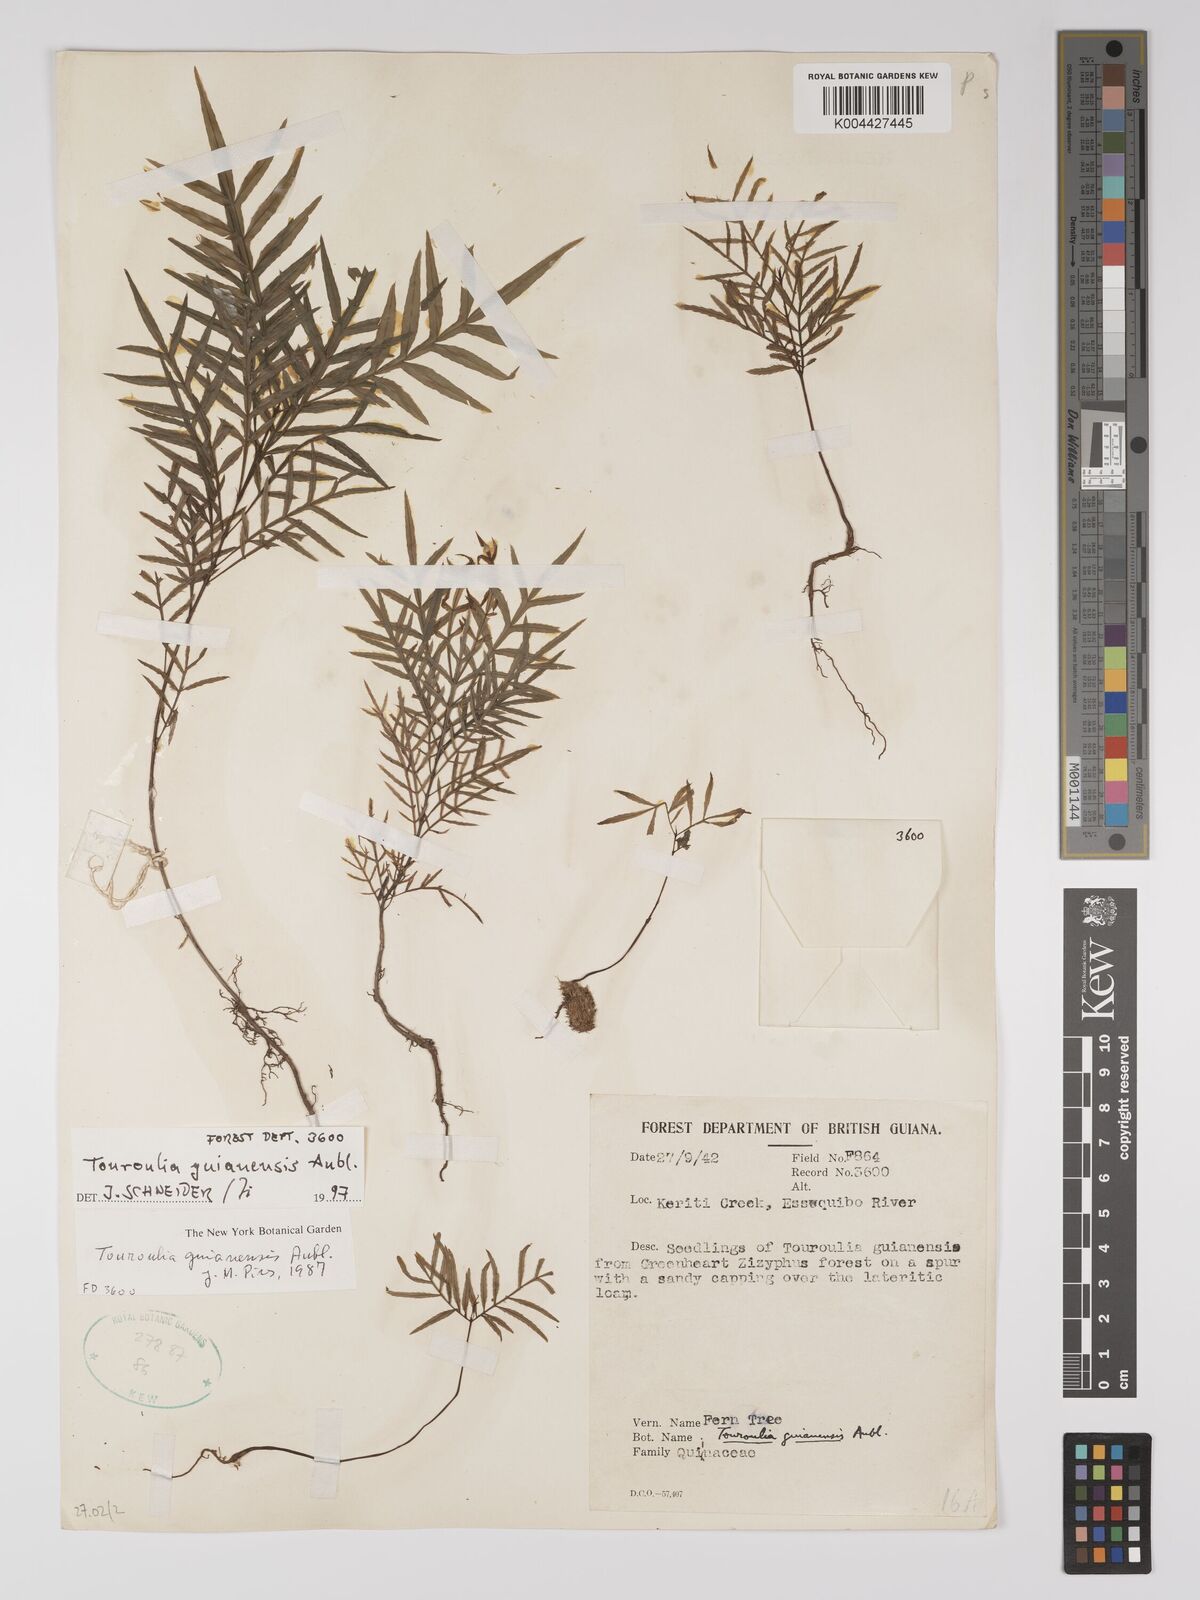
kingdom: Plantae
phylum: Tracheophyta
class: Magnoliopsida
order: Malpighiales
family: Quiinaceae
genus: Touroulia
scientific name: Touroulia guianensis
